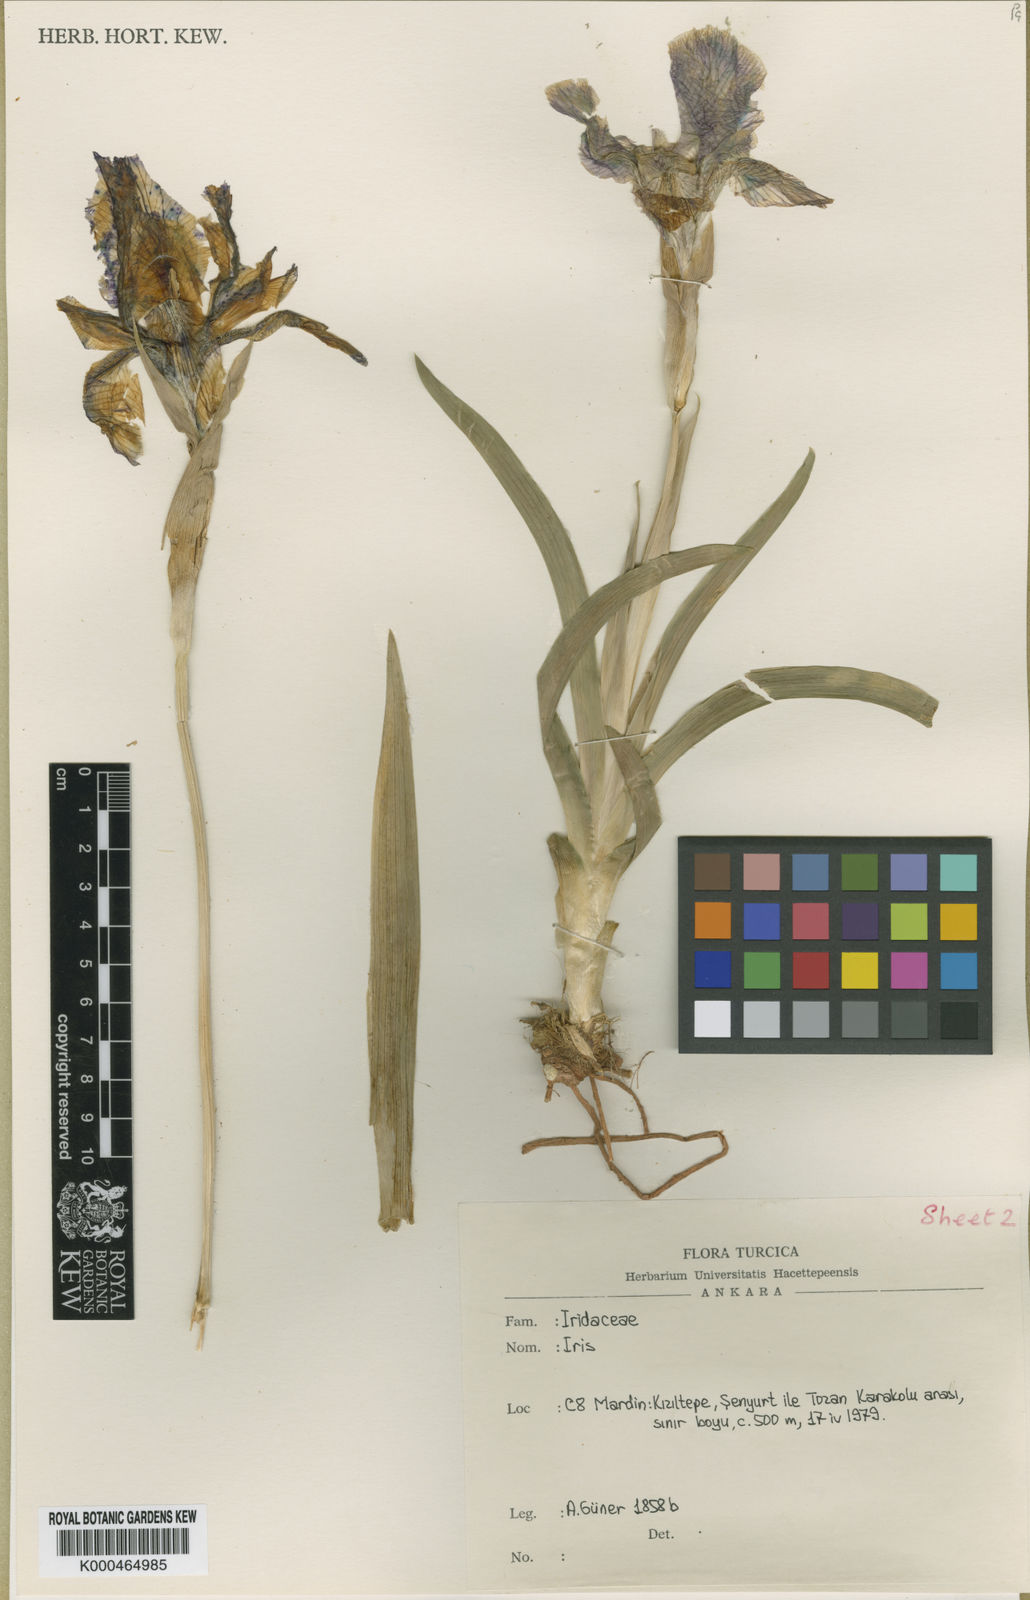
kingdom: Plantae
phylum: Tracheophyta
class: Liliopsida
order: Asparagales
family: Iridaceae
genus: Iris
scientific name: Iris maculata
